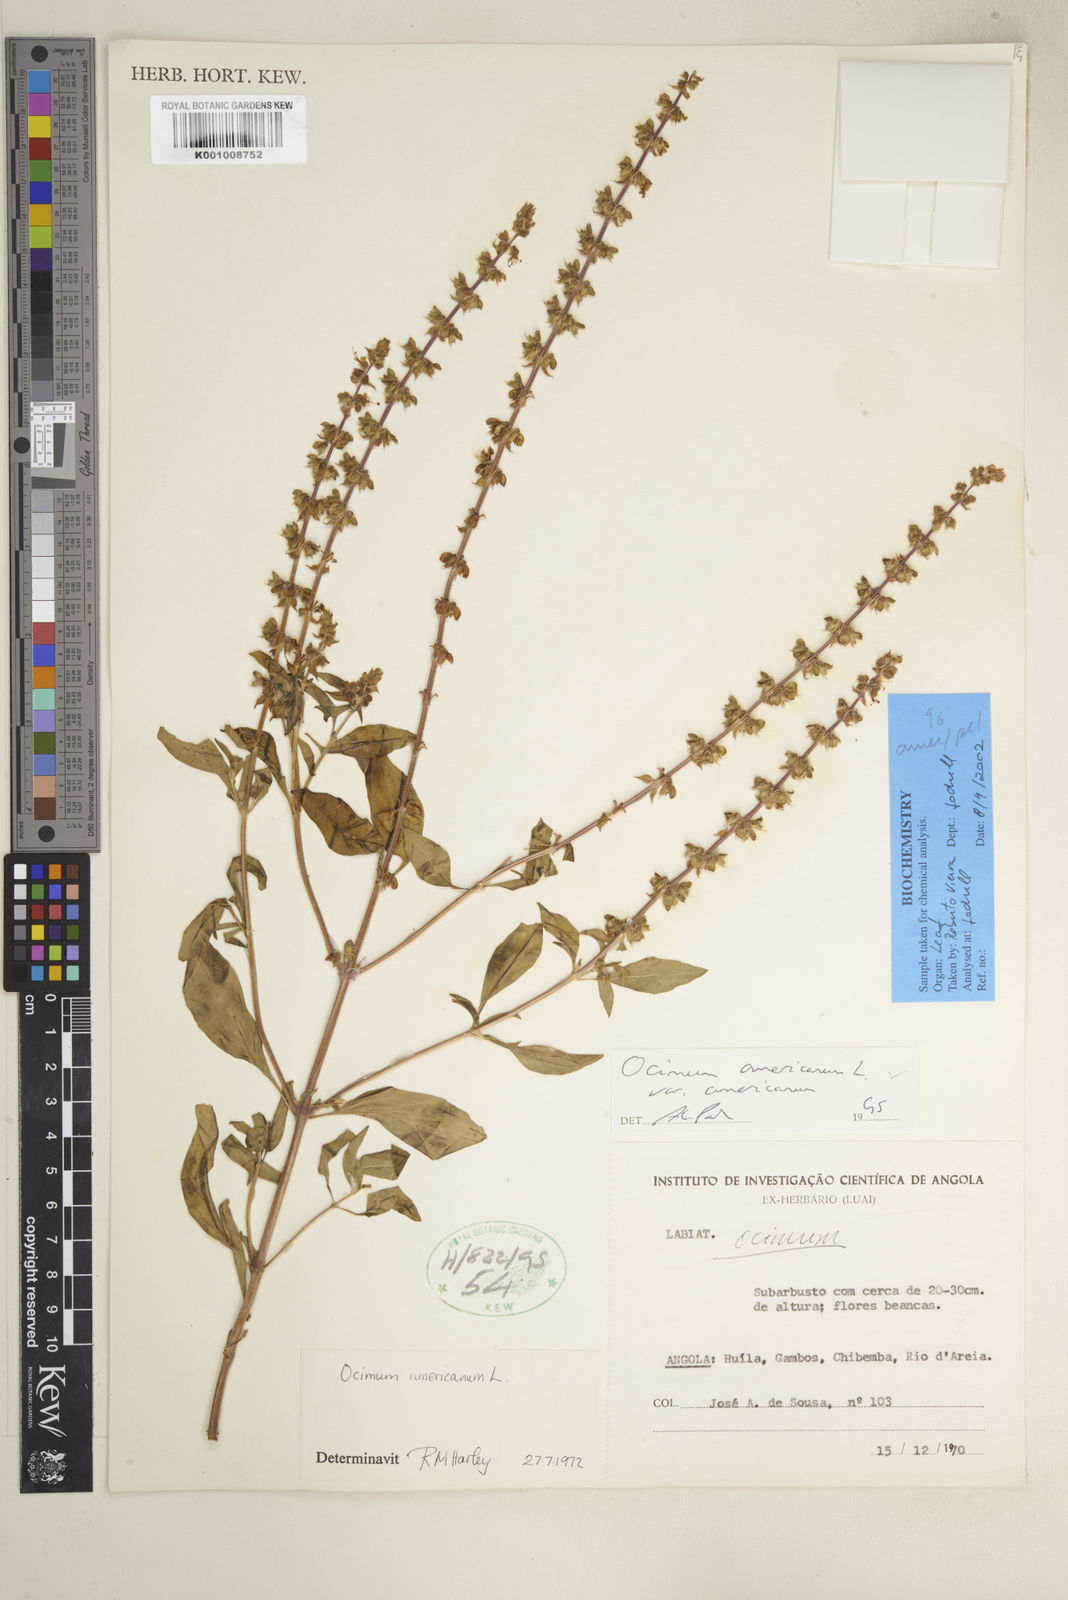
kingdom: Plantae
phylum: Tracheophyta
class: Magnoliopsida
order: Lamiales
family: Lamiaceae
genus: Ocimum
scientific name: Ocimum americanum
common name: American basil
